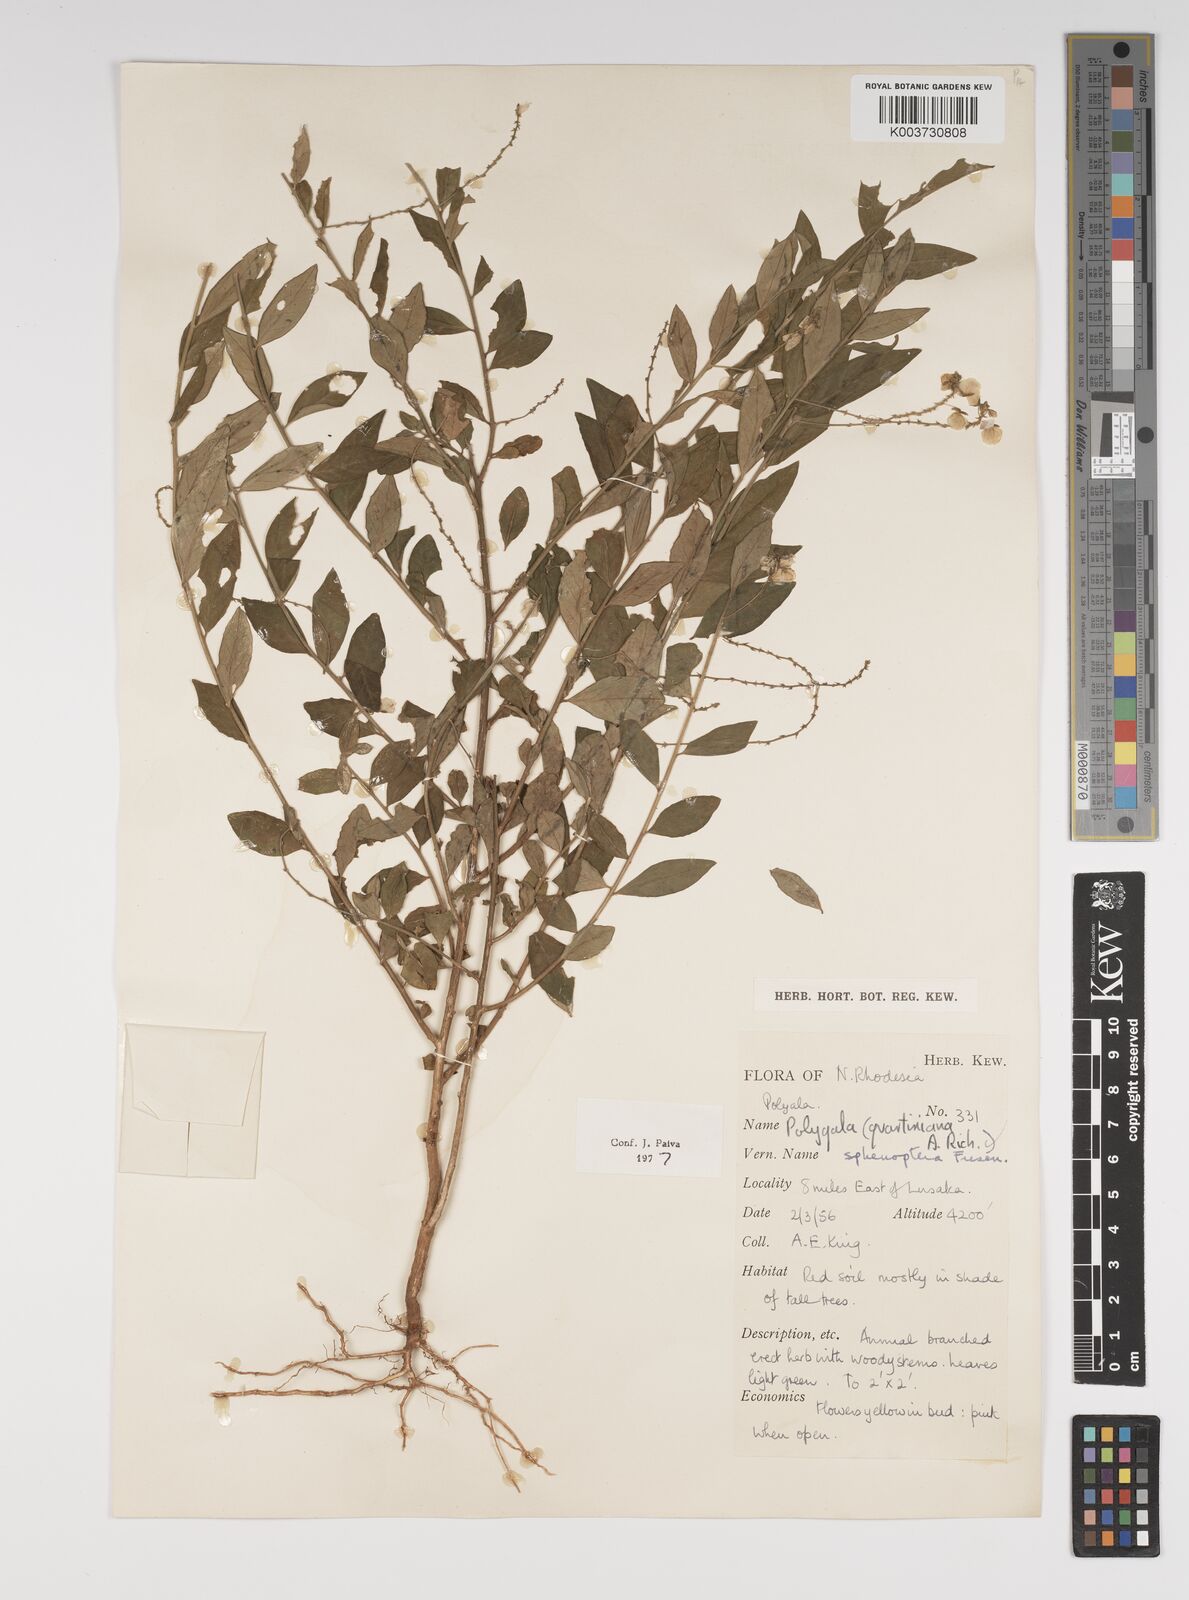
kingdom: Plantae
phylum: Tracheophyta
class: Magnoliopsida
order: Fabales
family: Polygalaceae
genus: Polygala
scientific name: Polygala sphenoptera
